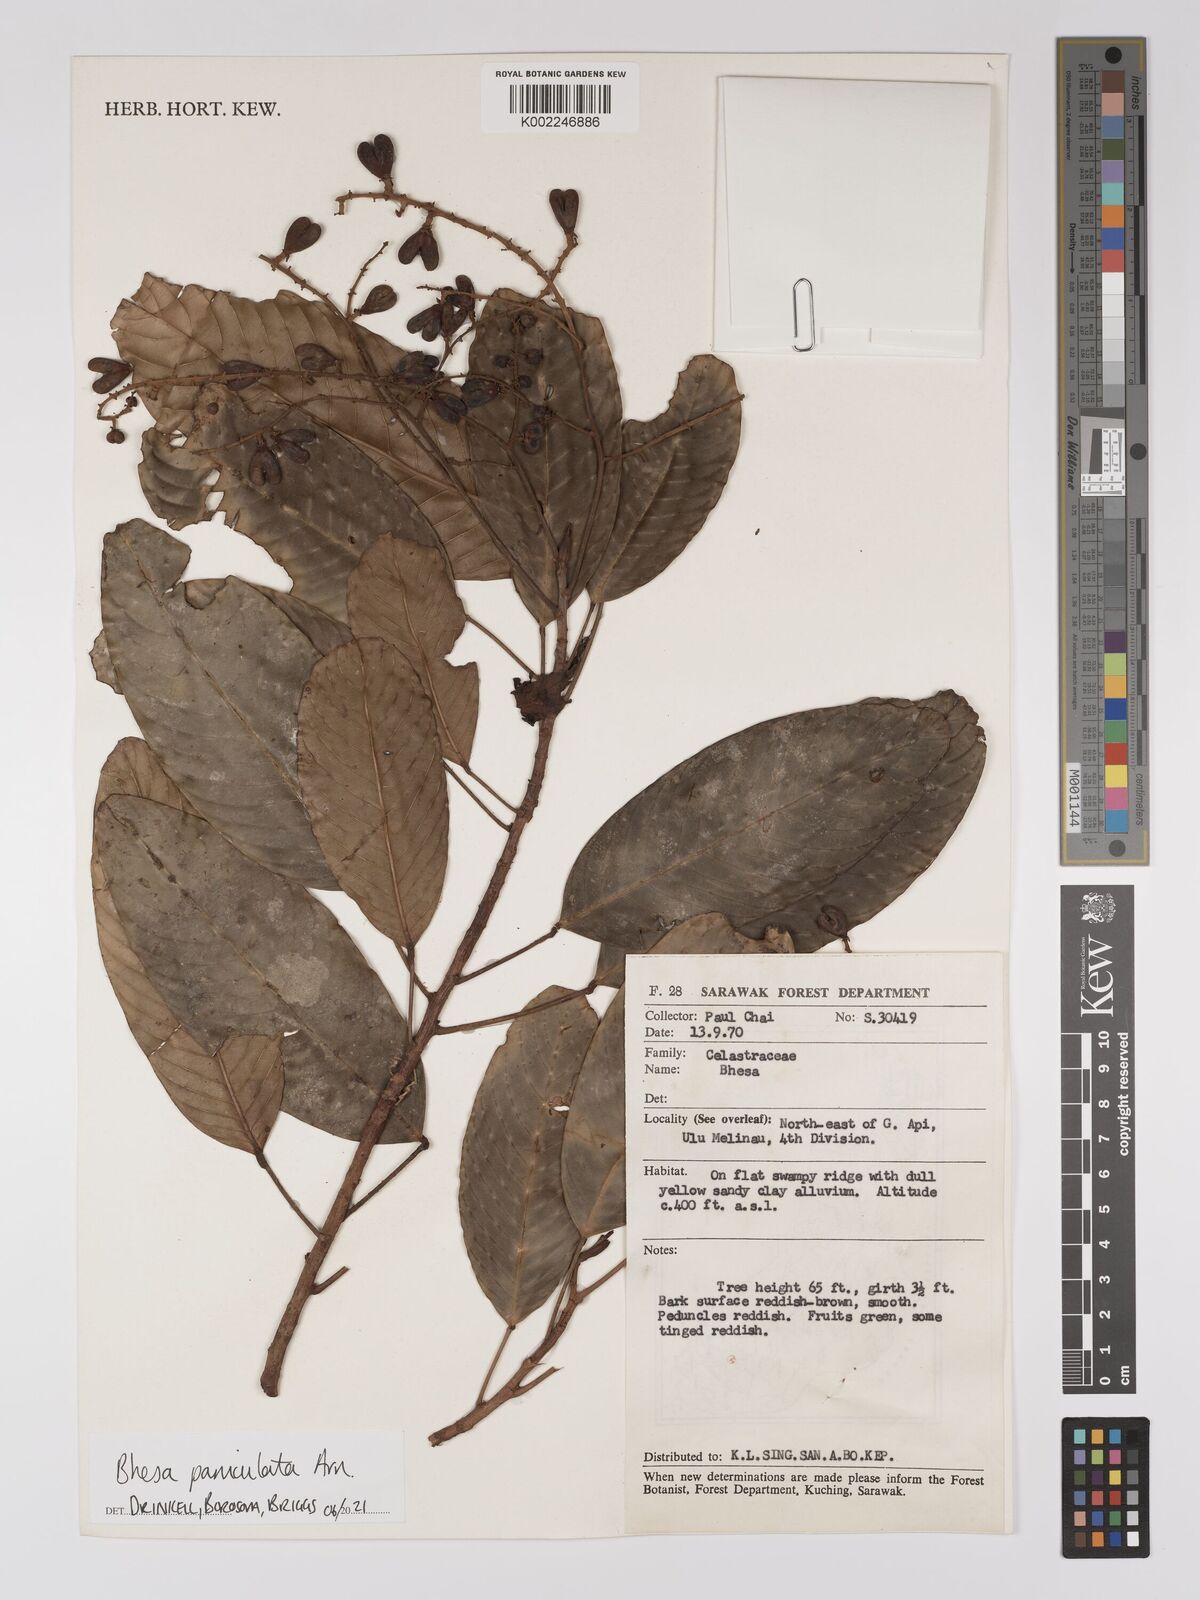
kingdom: Plantae
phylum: Tracheophyta
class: Magnoliopsida
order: Malpighiales
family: Centroplacaceae
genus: Bhesa
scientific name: Bhesa paniculata
